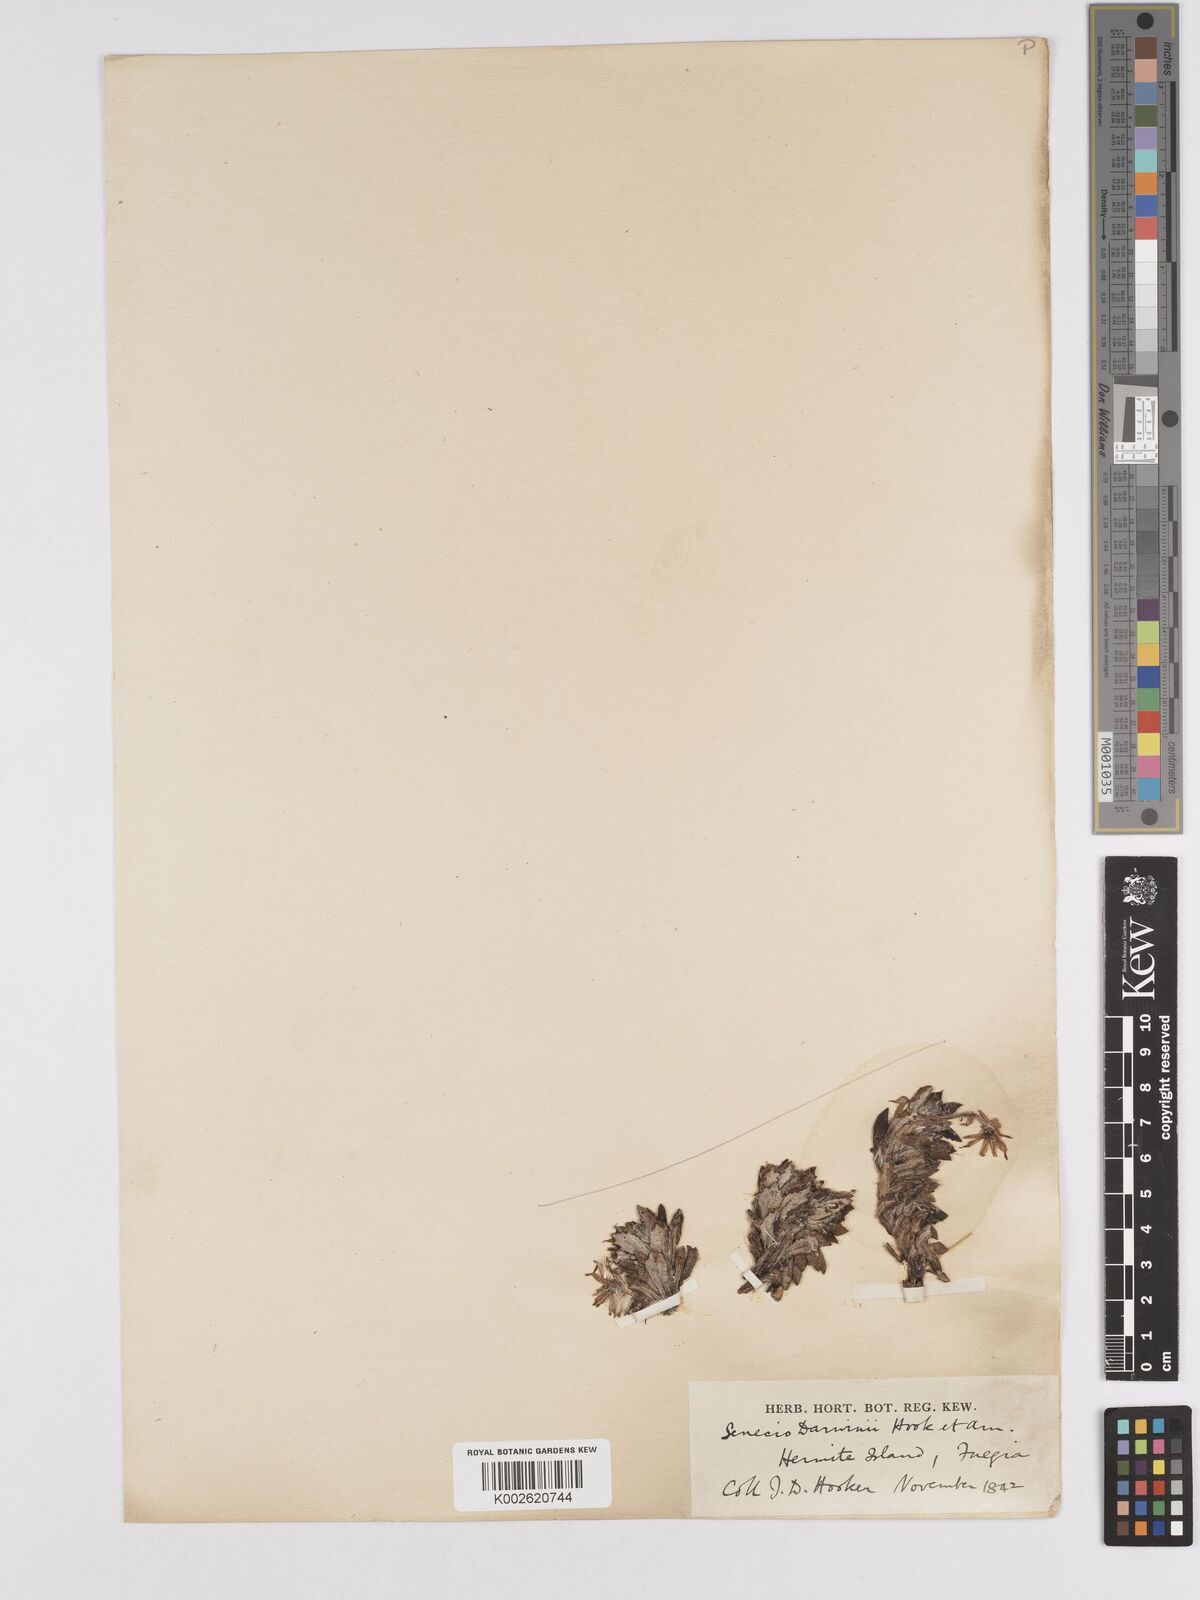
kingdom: Plantae
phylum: Tracheophyta
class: Magnoliopsida
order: Asterales
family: Asteraceae
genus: Senecio
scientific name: Senecio darwinii
